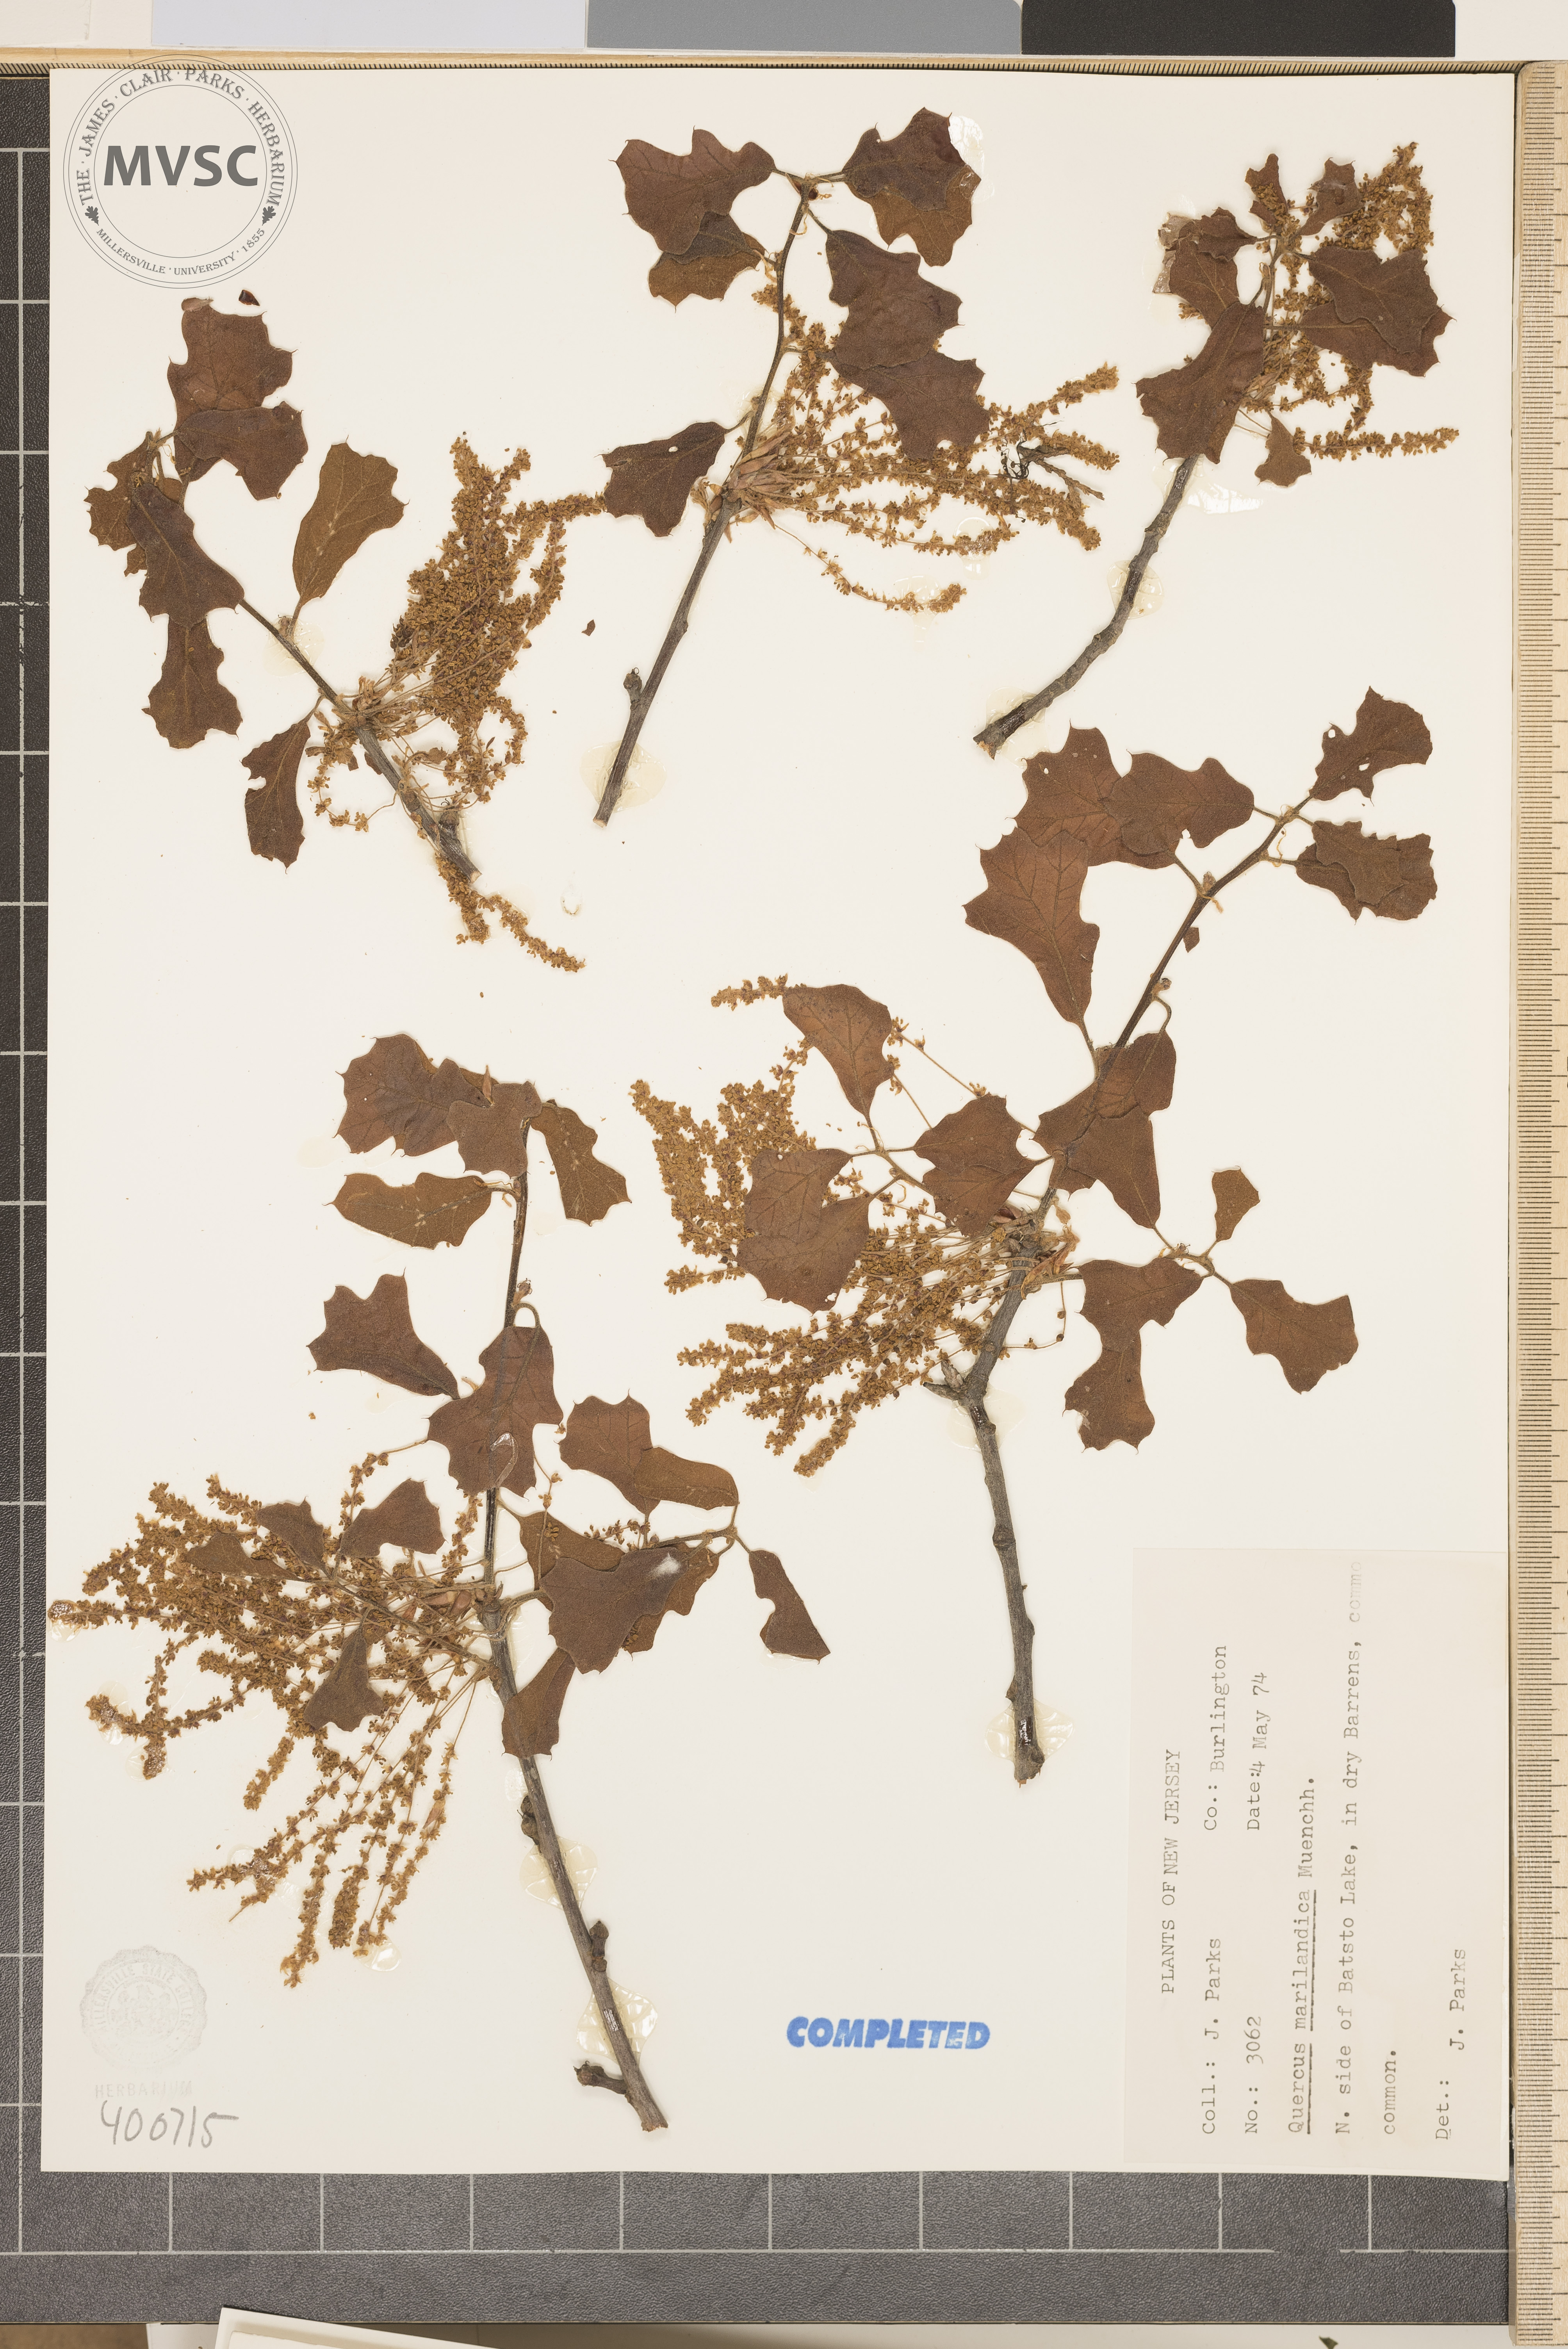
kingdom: Plantae
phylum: Tracheophyta
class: Magnoliopsida
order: Fagales
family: Fagaceae
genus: Quercus
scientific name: Quercus marilandica
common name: blackjack oak
